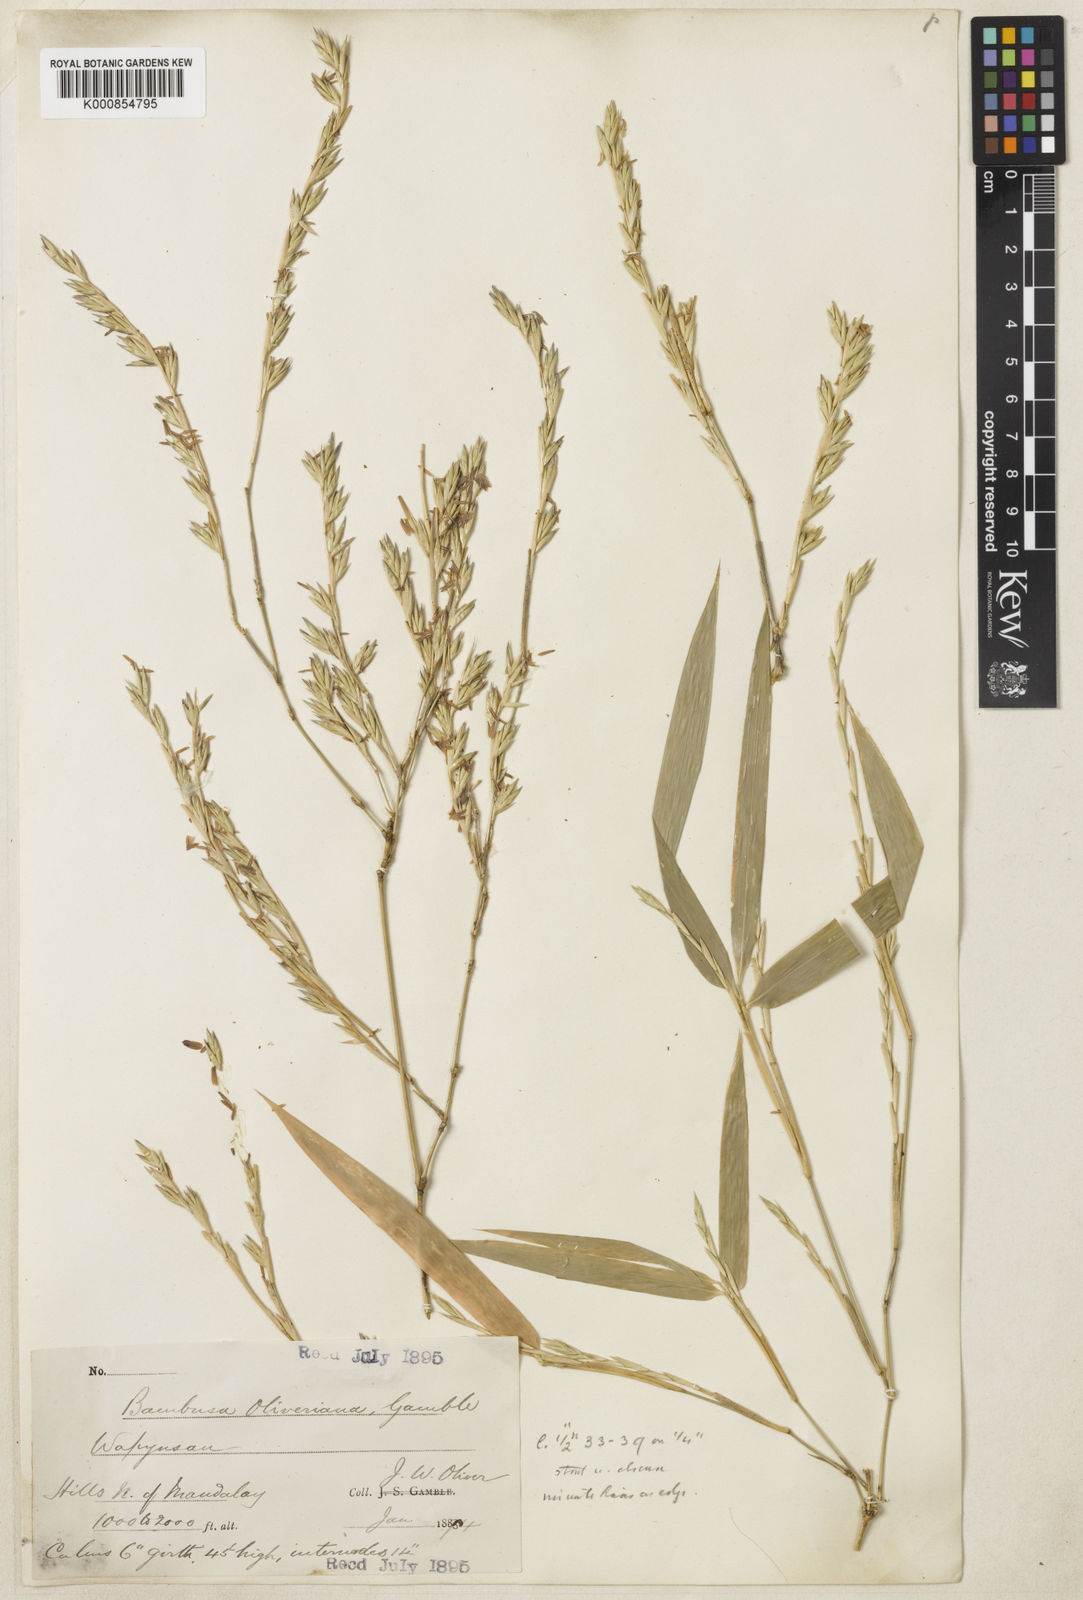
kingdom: Plantae
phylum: Tracheophyta
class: Liliopsida
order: Poales
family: Poaceae
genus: Bambusa
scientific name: Bambusa oliveriana
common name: Bush bamboo
